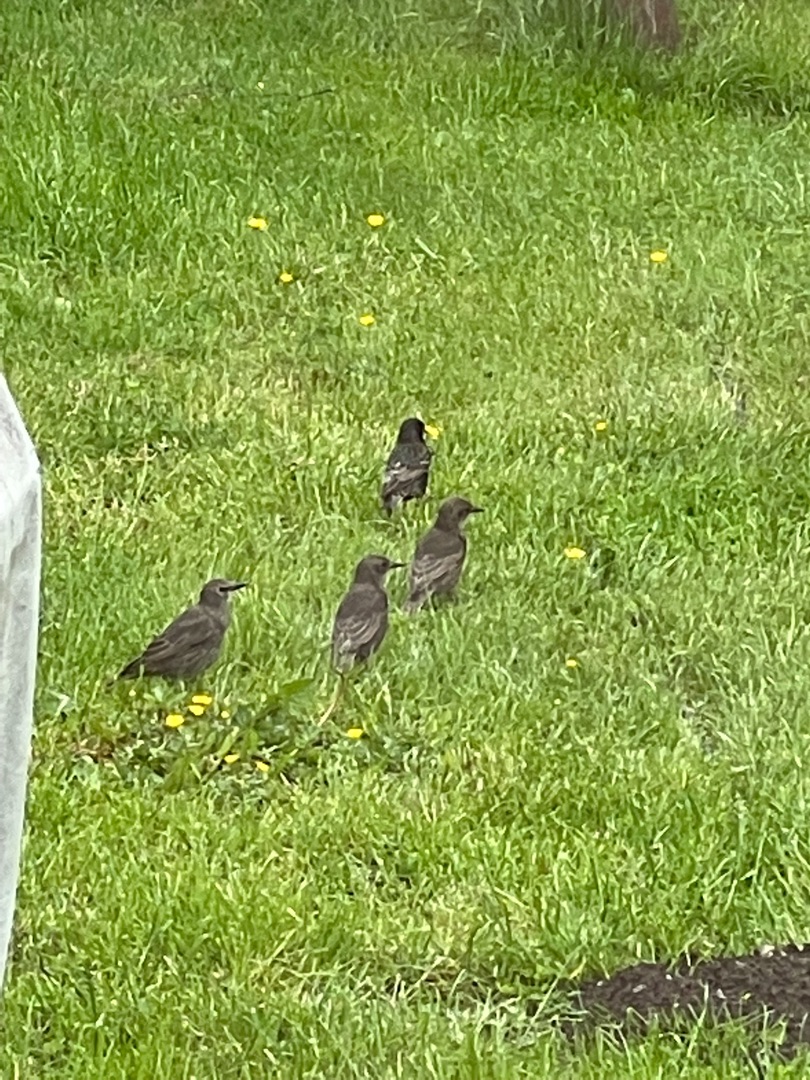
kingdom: Animalia
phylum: Chordata
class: Aves
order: Passeriformes
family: Sturnidae
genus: Sturnus
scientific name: Sturnus vulgaris
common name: Stær
